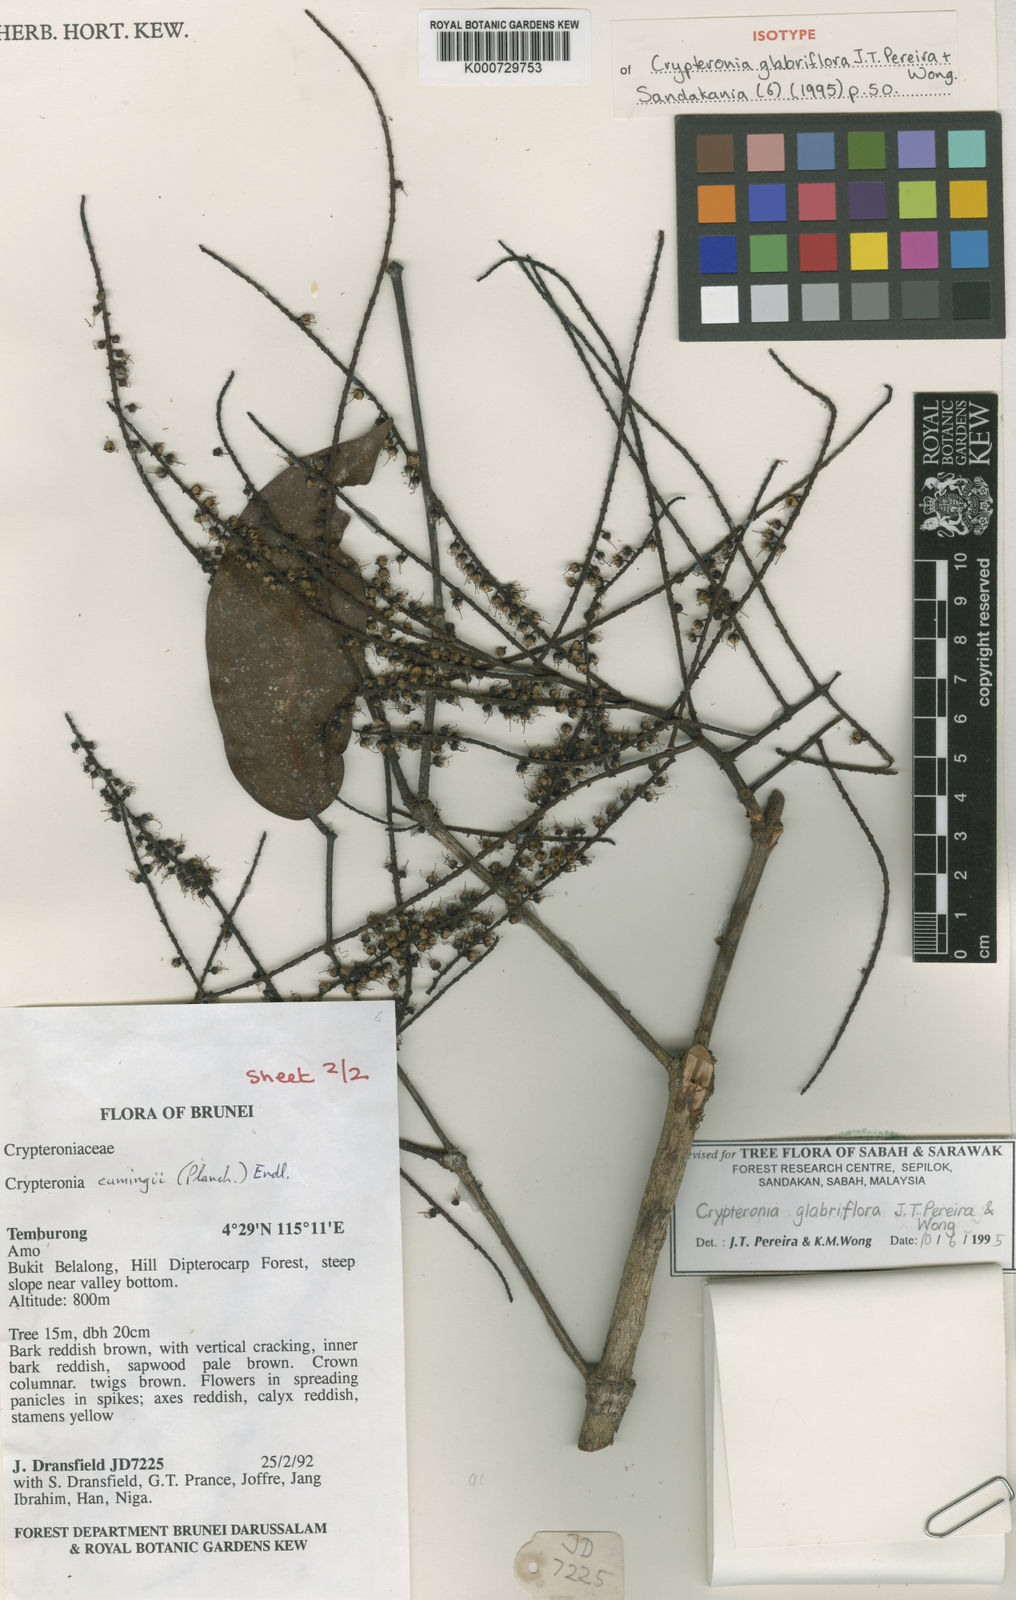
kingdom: Plantae
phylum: Tracheophyta
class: Magnoliopsida
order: Myrtales
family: Crypteroniaceae
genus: Crypteronia
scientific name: Crypteronia glabriflora
